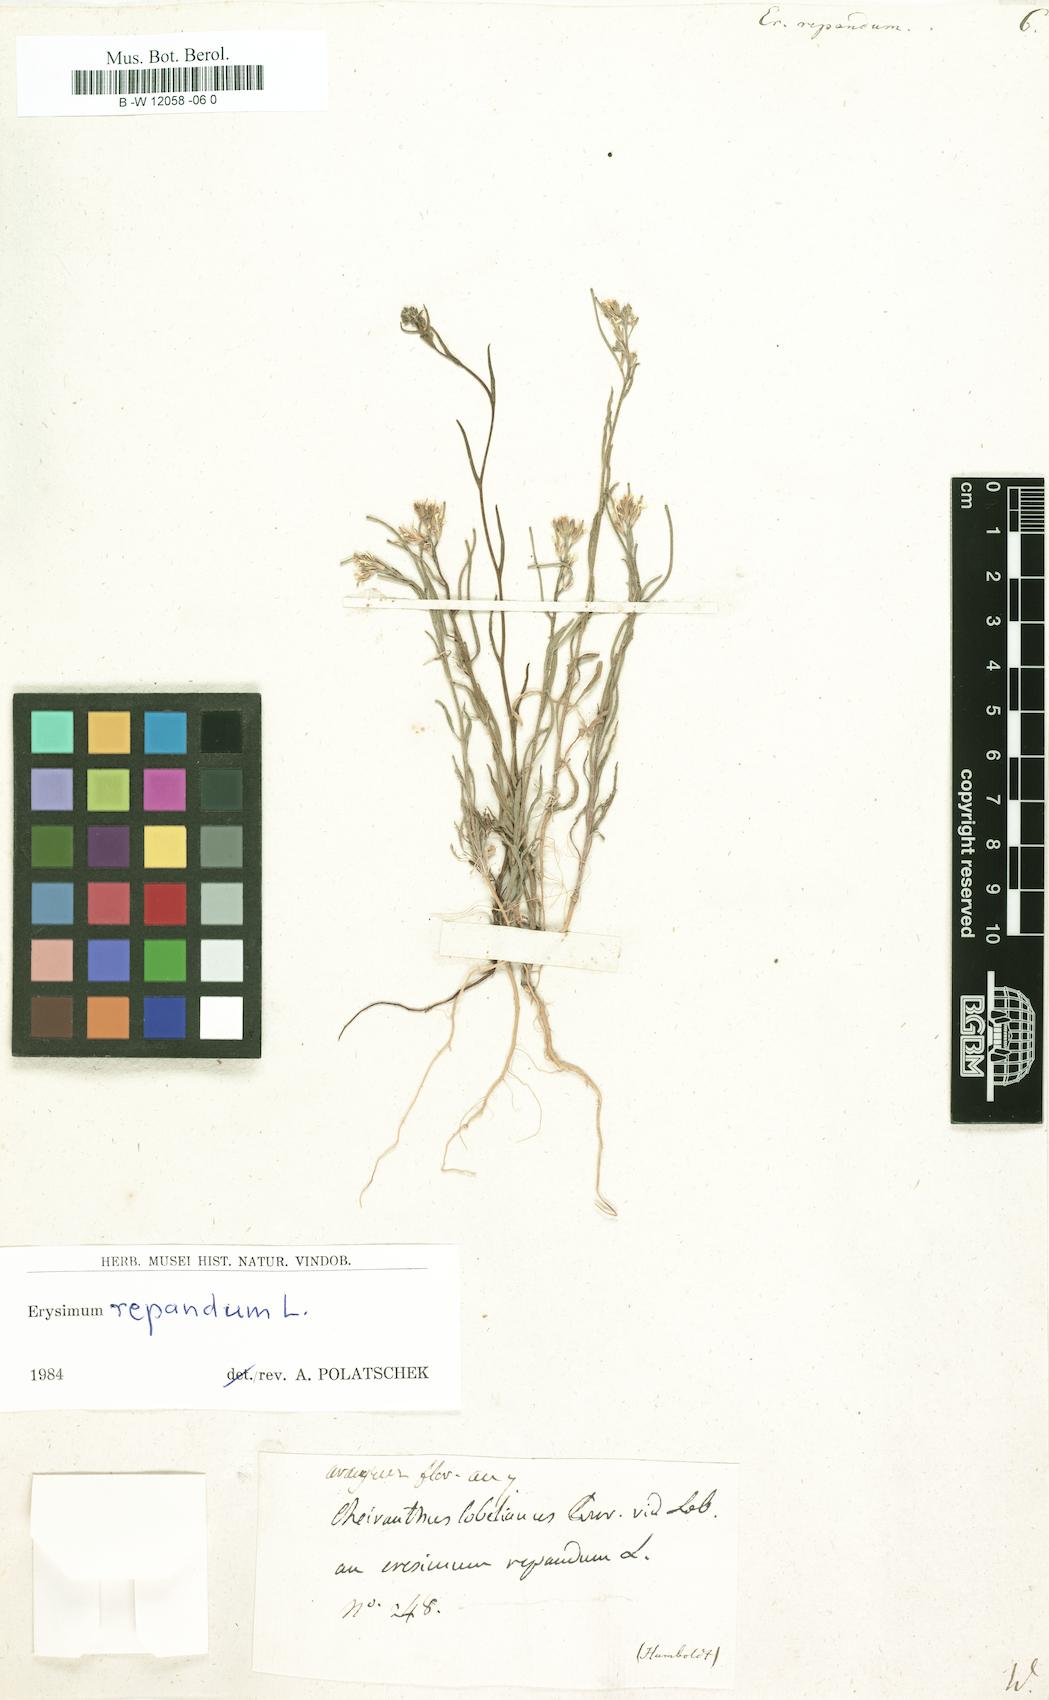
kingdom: Plantae
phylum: Tracheophyta
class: Magnoliopsida
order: Brassicales
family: Brassicaceae
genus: Erysimum
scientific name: Erysimum repandum
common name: Spreading wallflower
